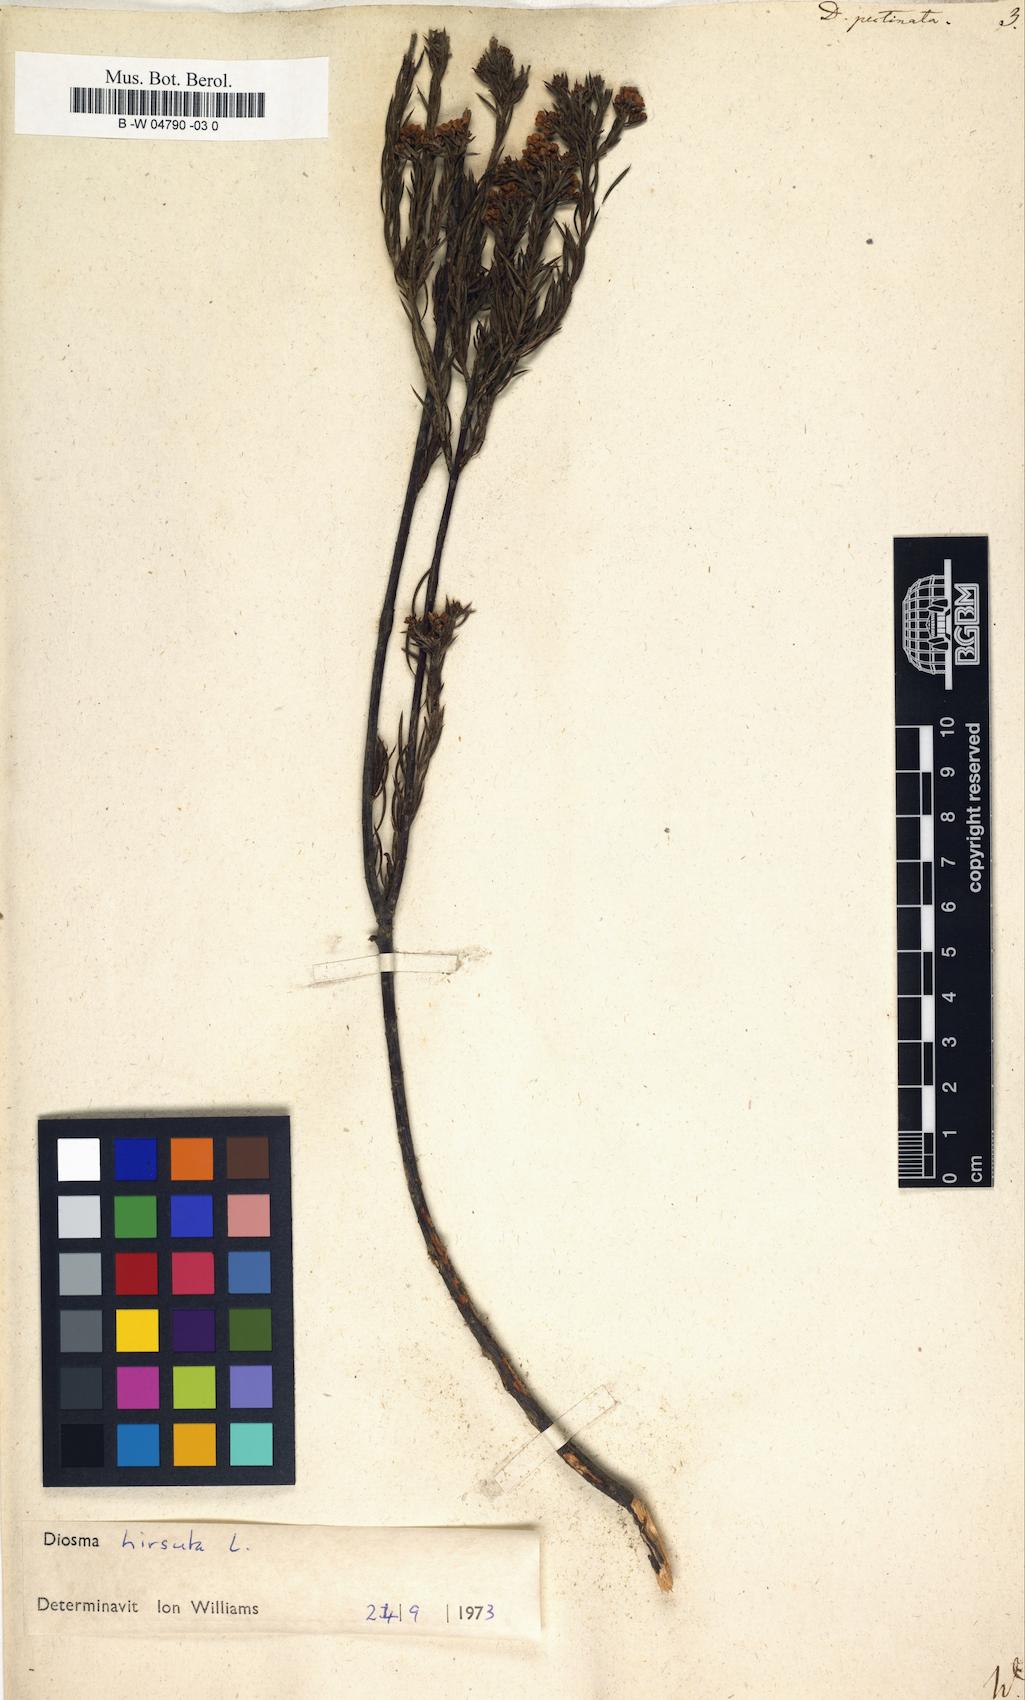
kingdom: Plantae
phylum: Tracheophyta
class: Magnoliopsida
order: Sapindales
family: Rutaceae
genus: Diosma
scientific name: Diosma hirsuta
